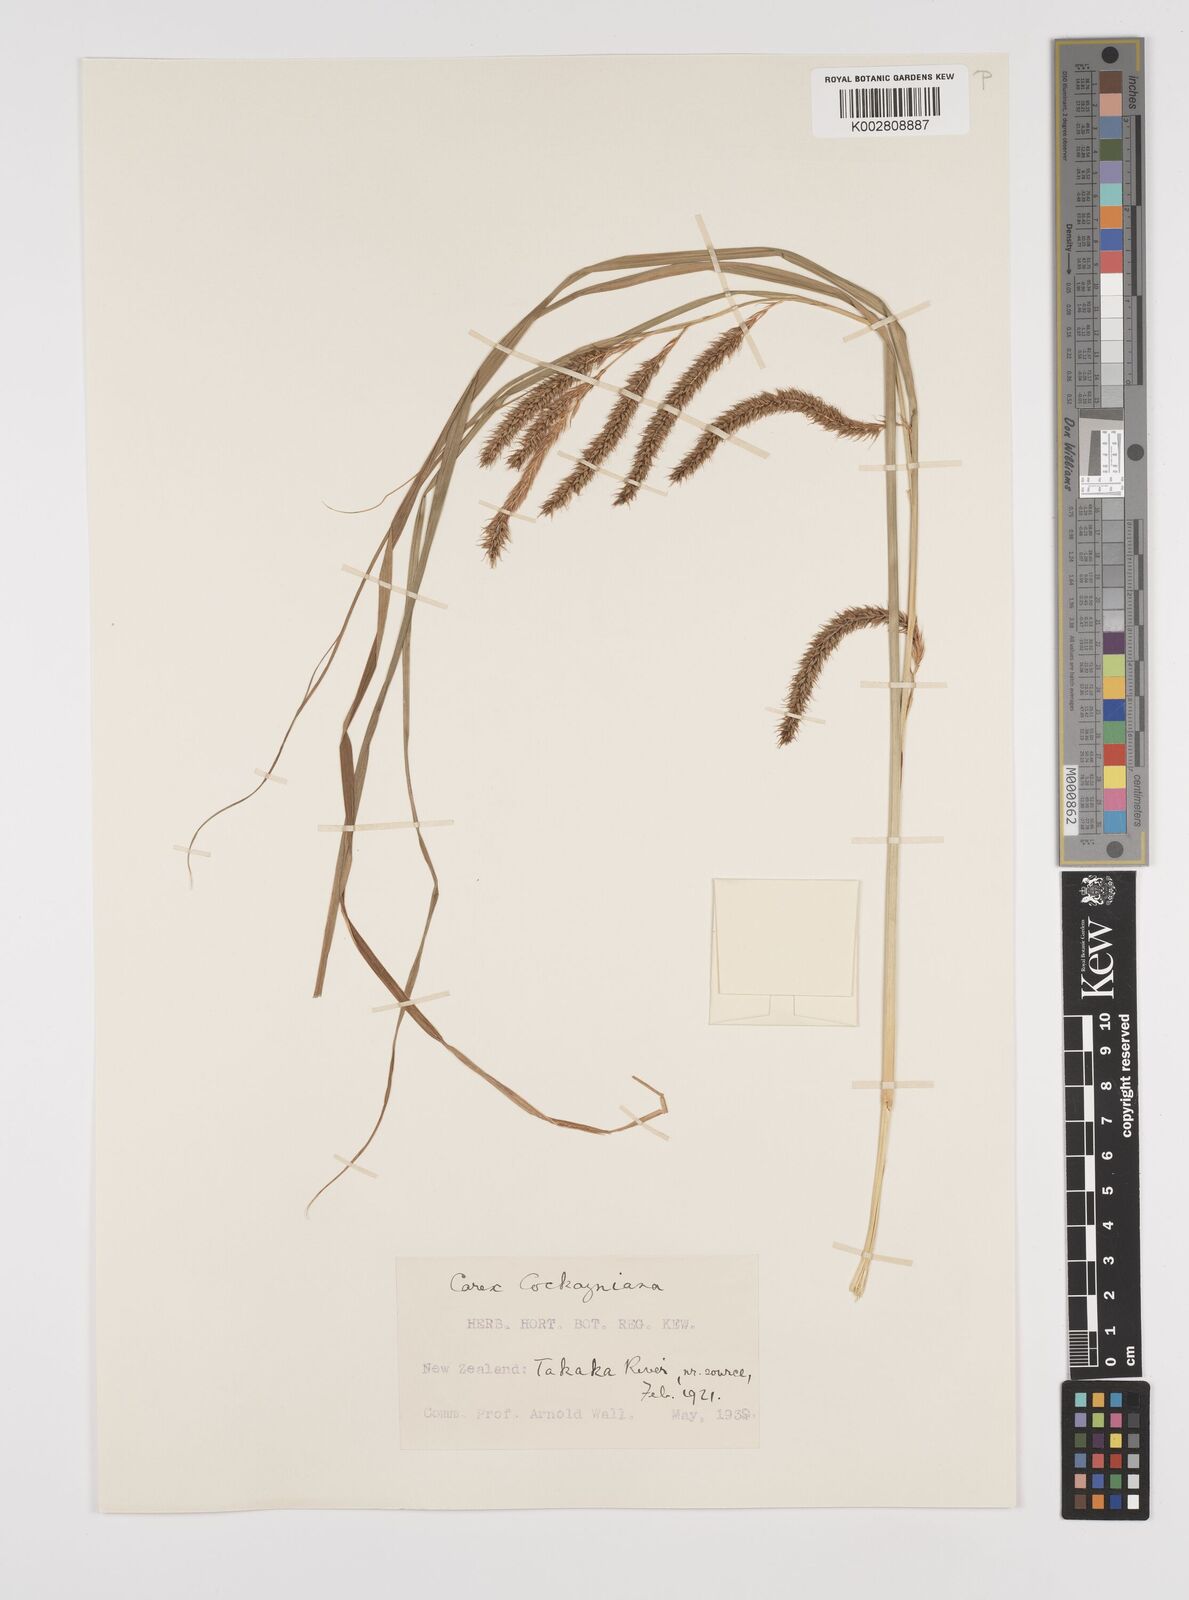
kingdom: Plantae
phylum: Tracheophyta
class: Liliopsida
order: Poales
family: Cyperaceae
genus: Carex
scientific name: Carex forsteri
